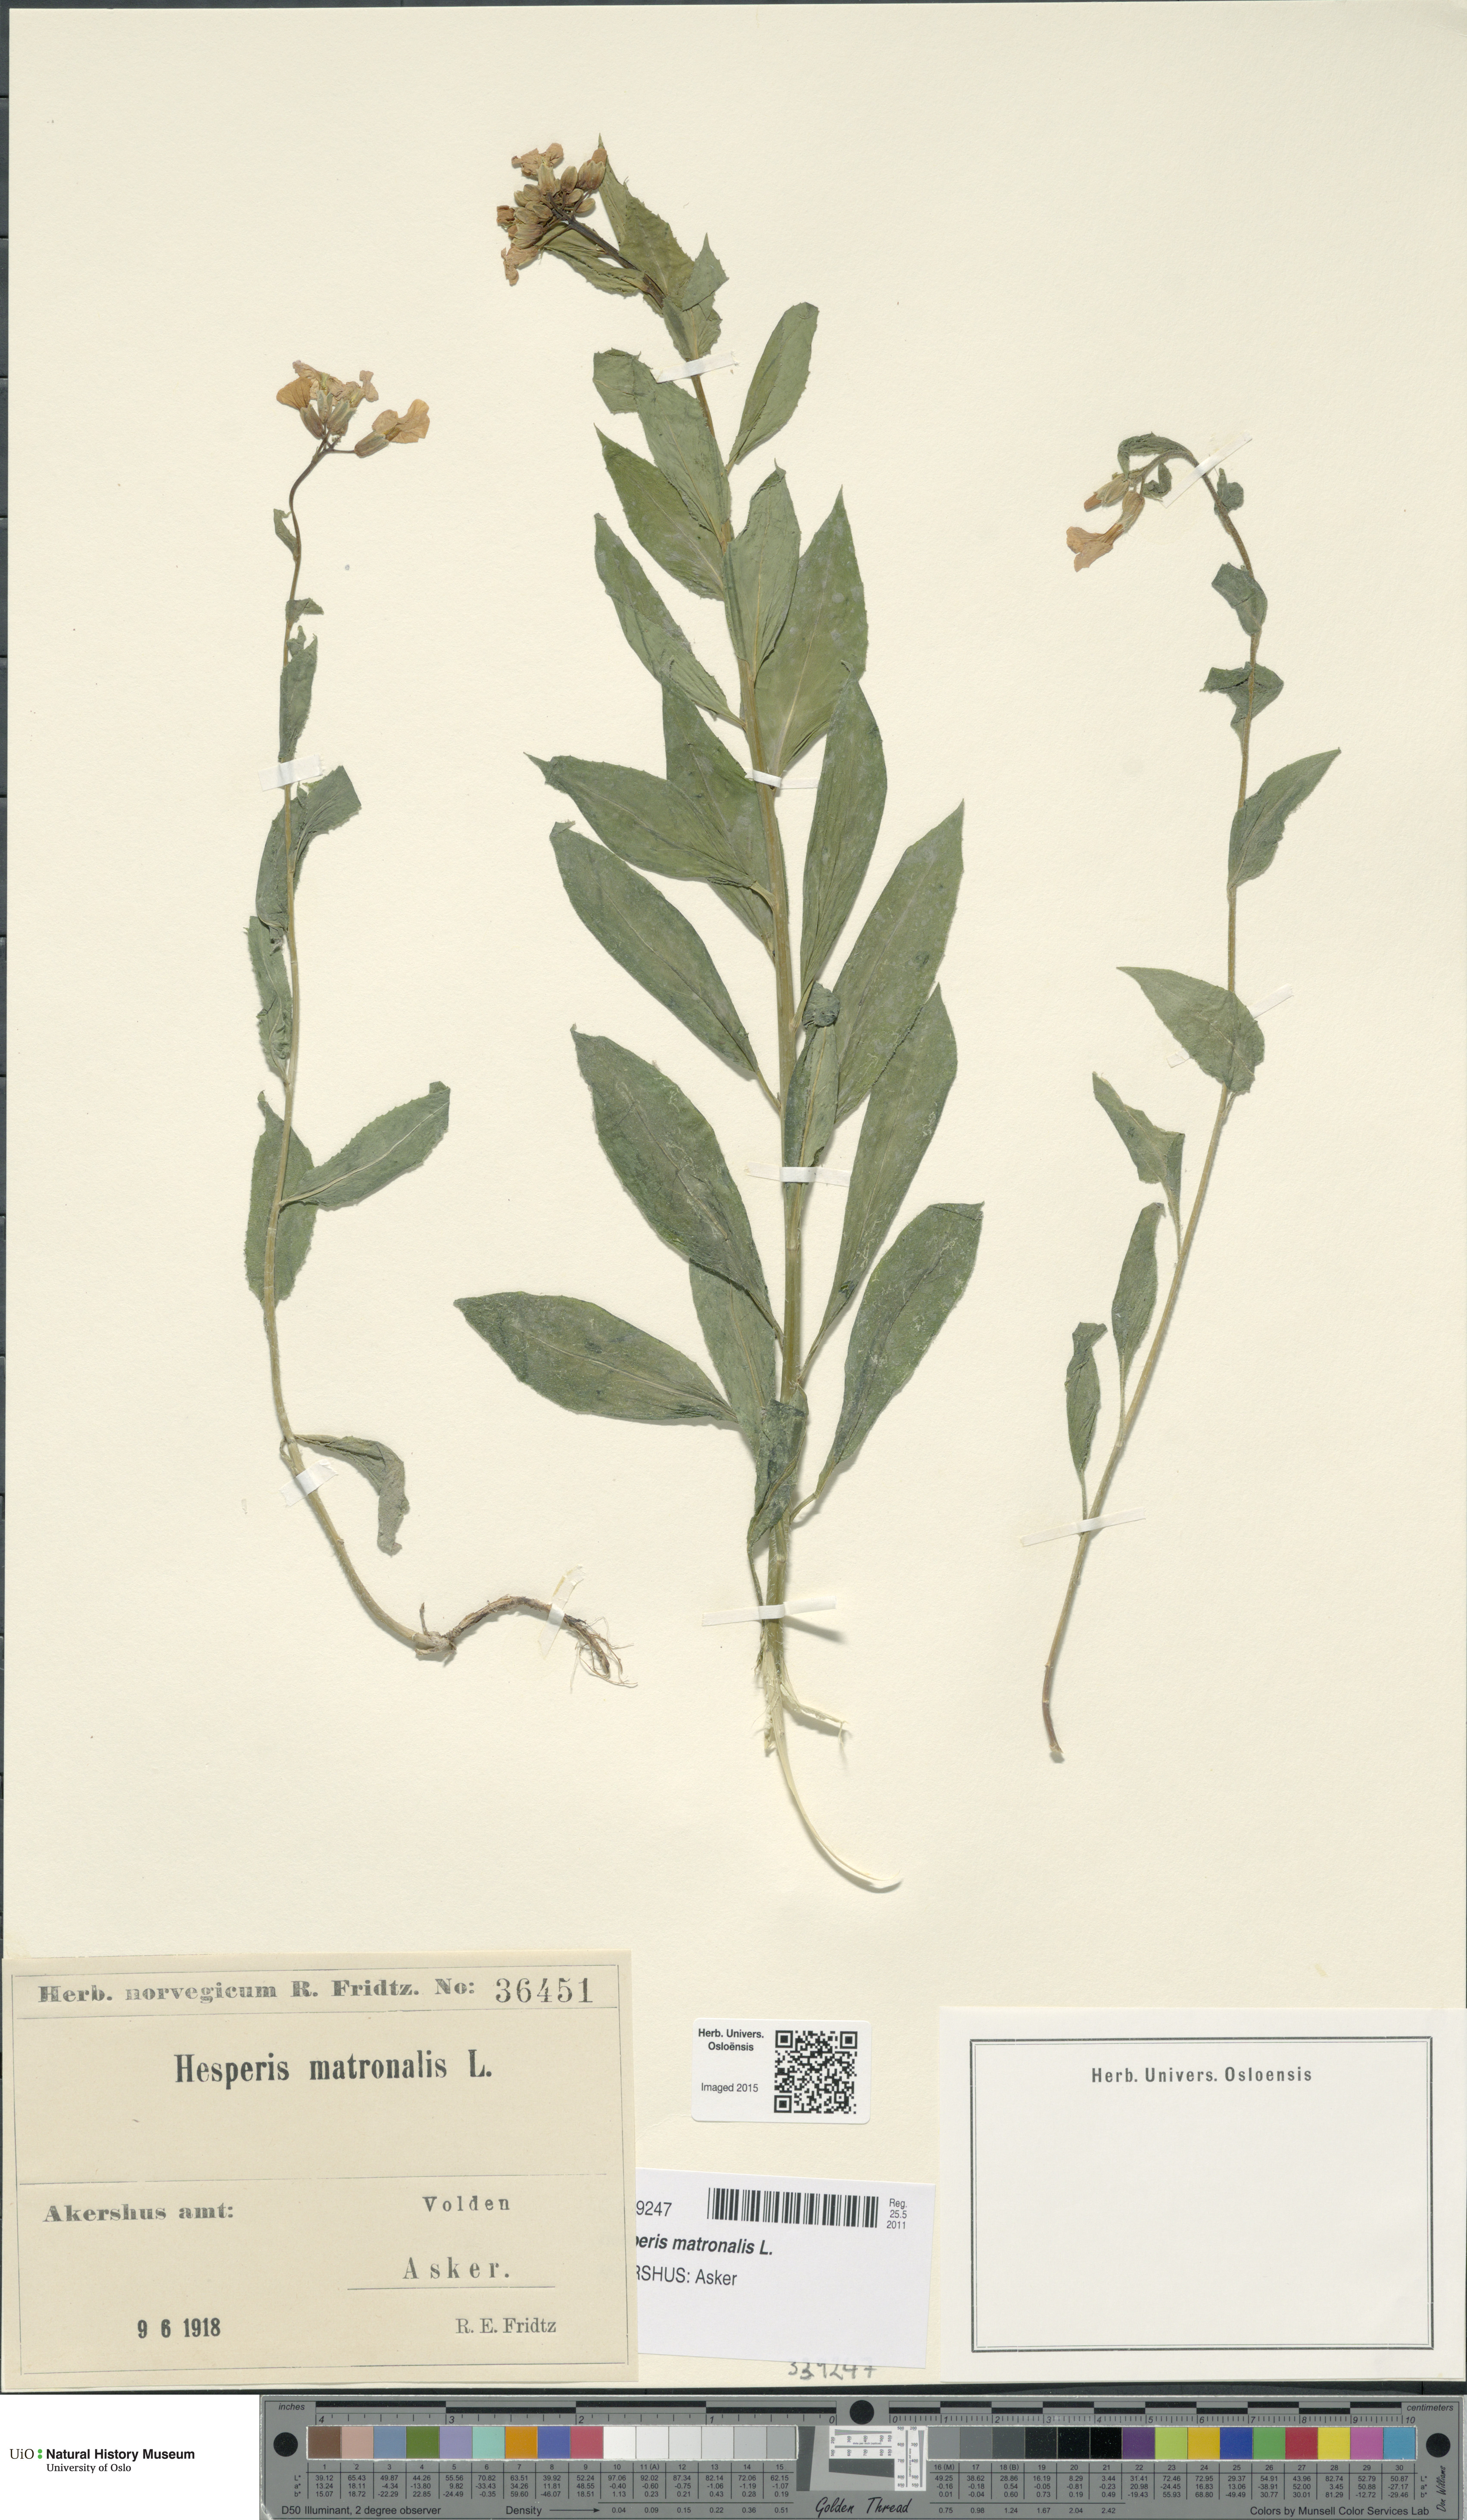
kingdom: Plantae
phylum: Tracheophyta
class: Magnoliopsida
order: Brassicales
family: Brassicaceae
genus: Hesperis
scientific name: Hesperis matronalis
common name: Dame's-violet
